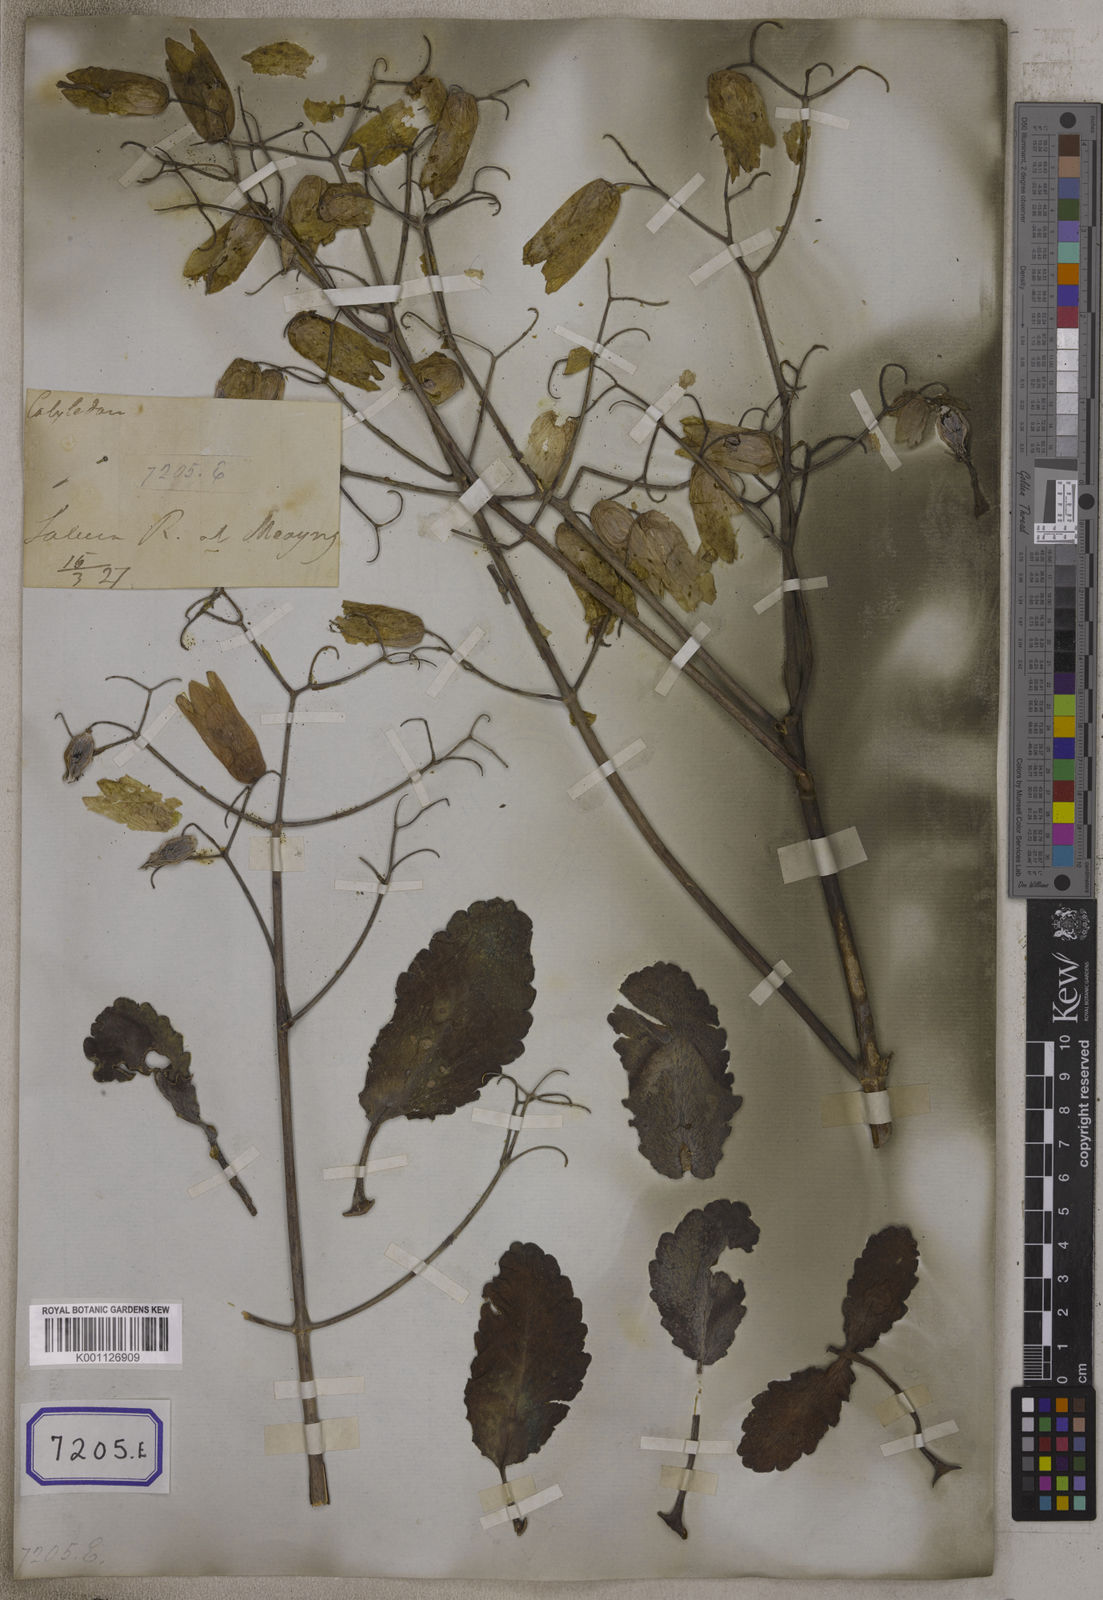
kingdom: Plantae
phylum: Tracheophyta
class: Magnoliopsida
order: Saxifragales
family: Crassulaceae
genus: Kalanchoe
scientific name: Kalanchoe pinnata
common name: Cathedral bells
